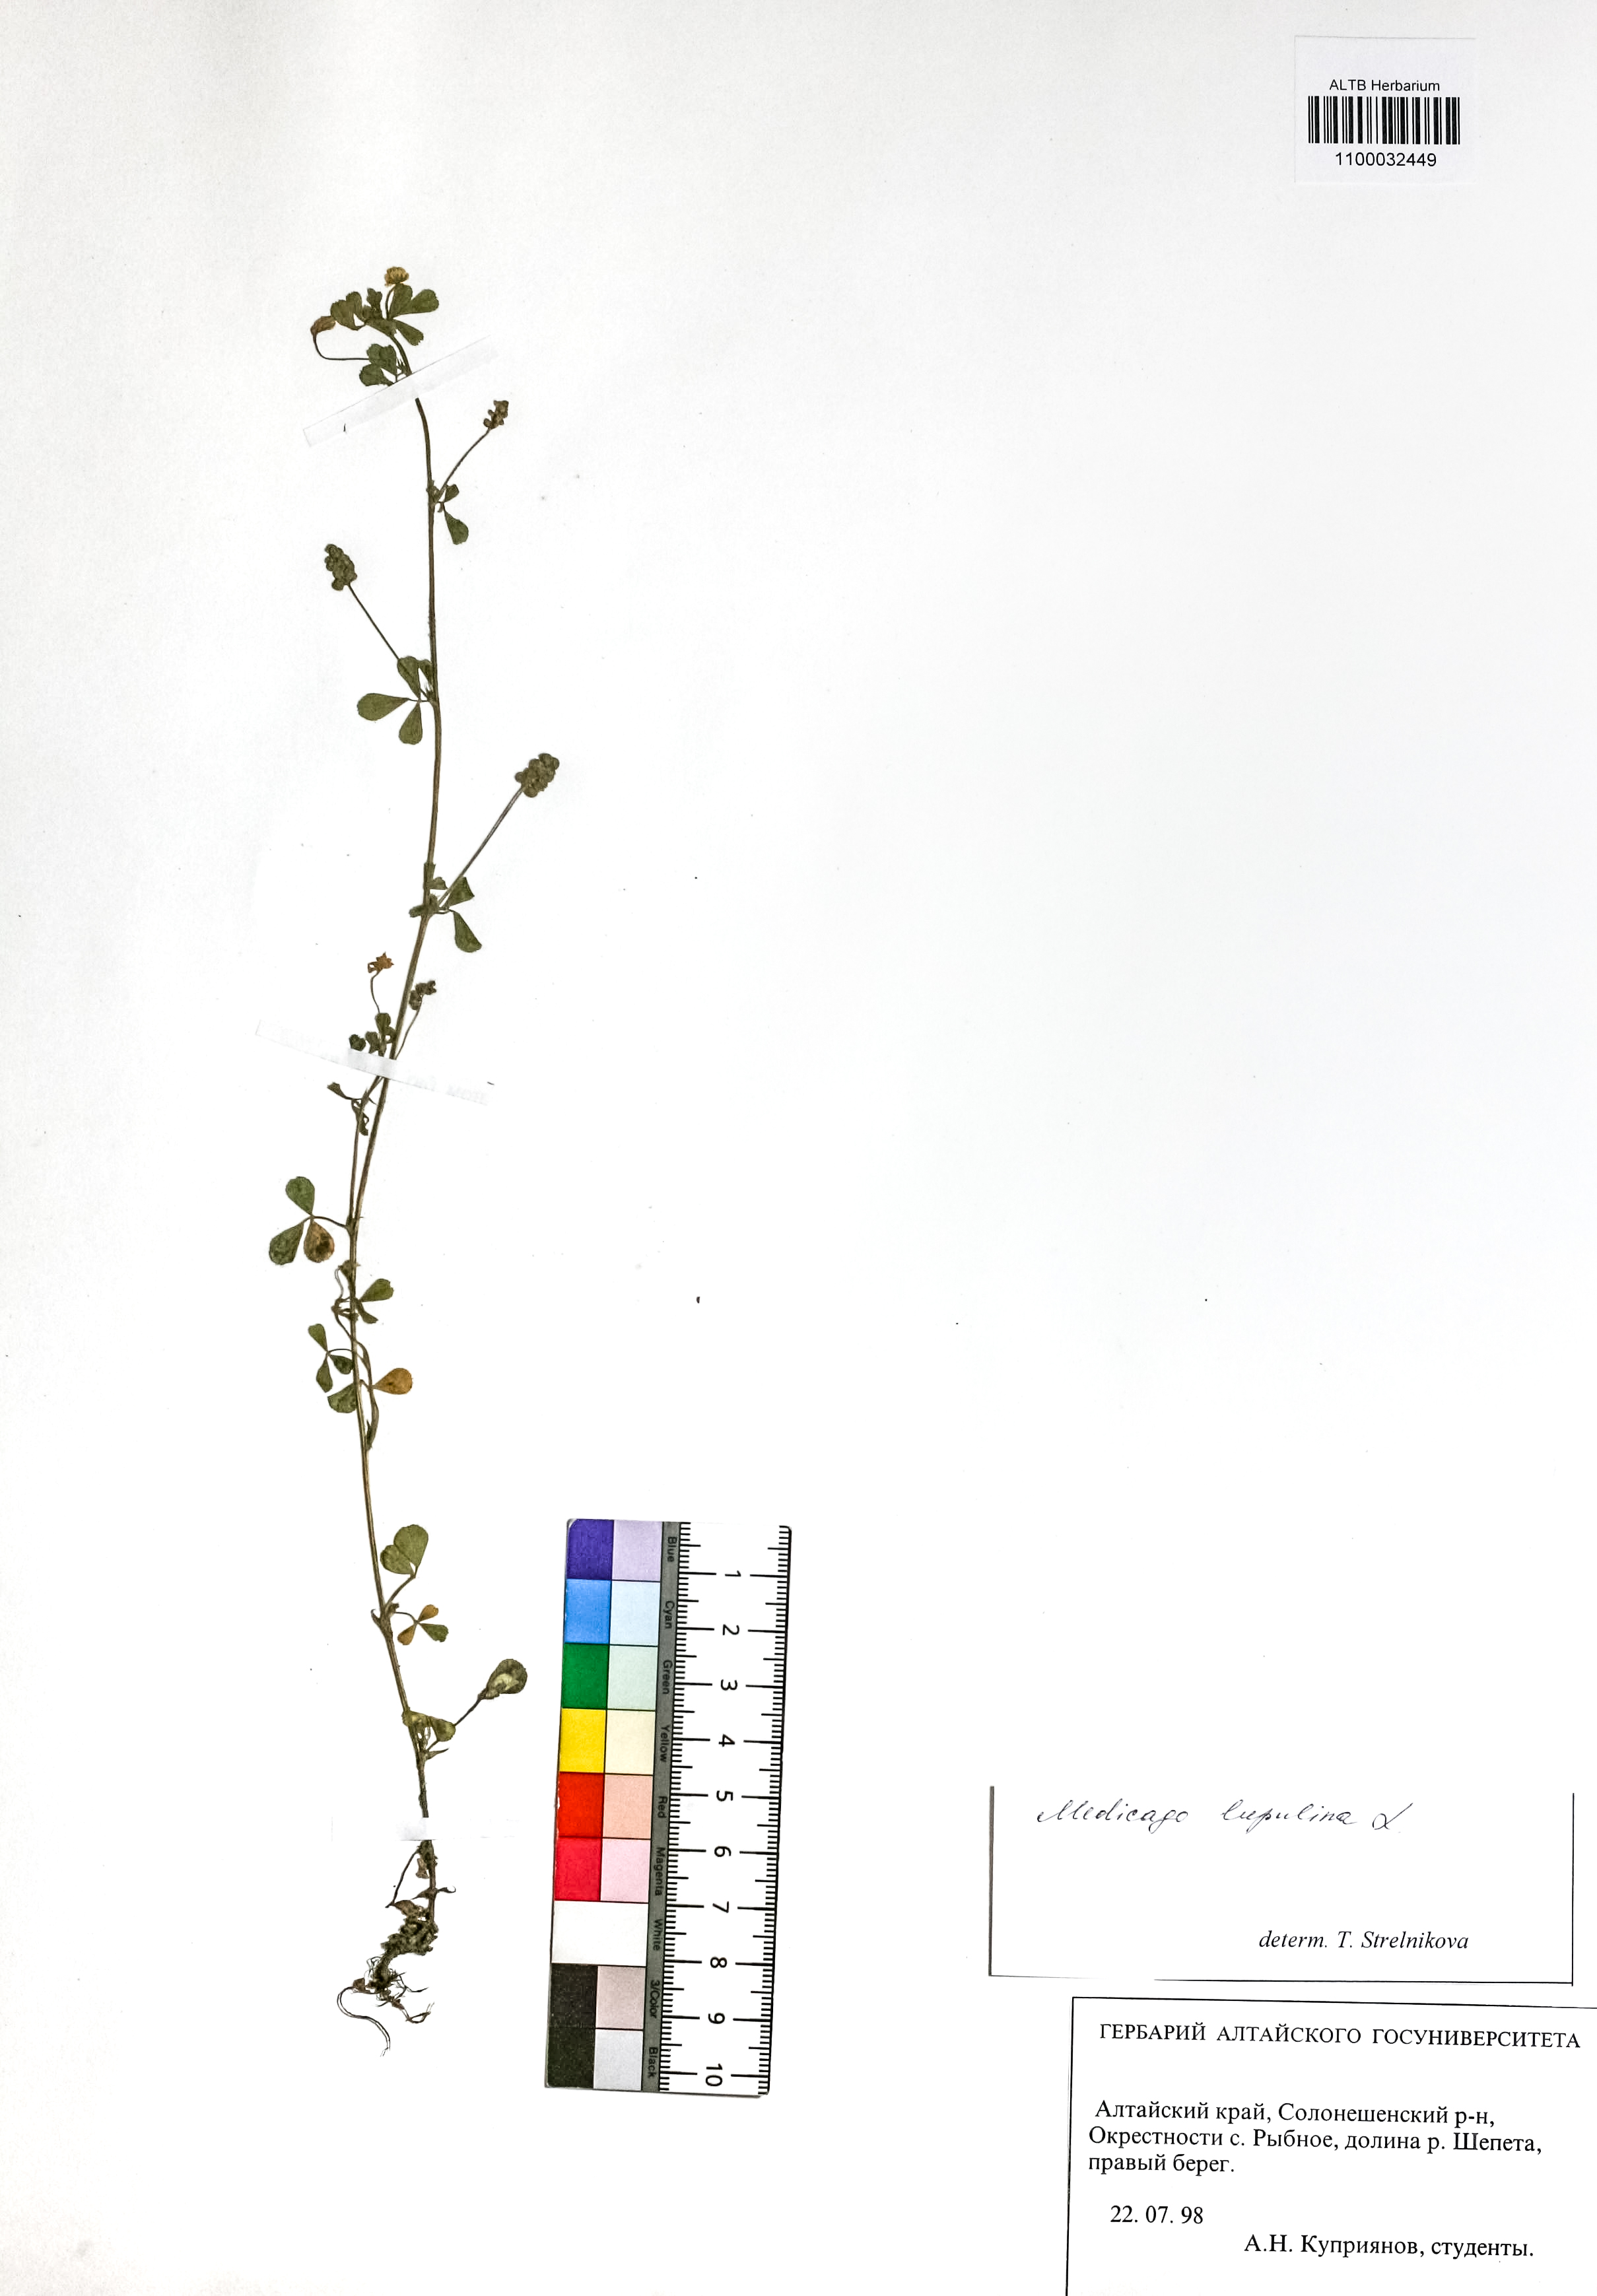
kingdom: Plantae
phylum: Tracheophyta
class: Magnoliopsida
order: Fabales
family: Fabaceae
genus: Medicago
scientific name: Medicago lupulina
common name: Black medick
